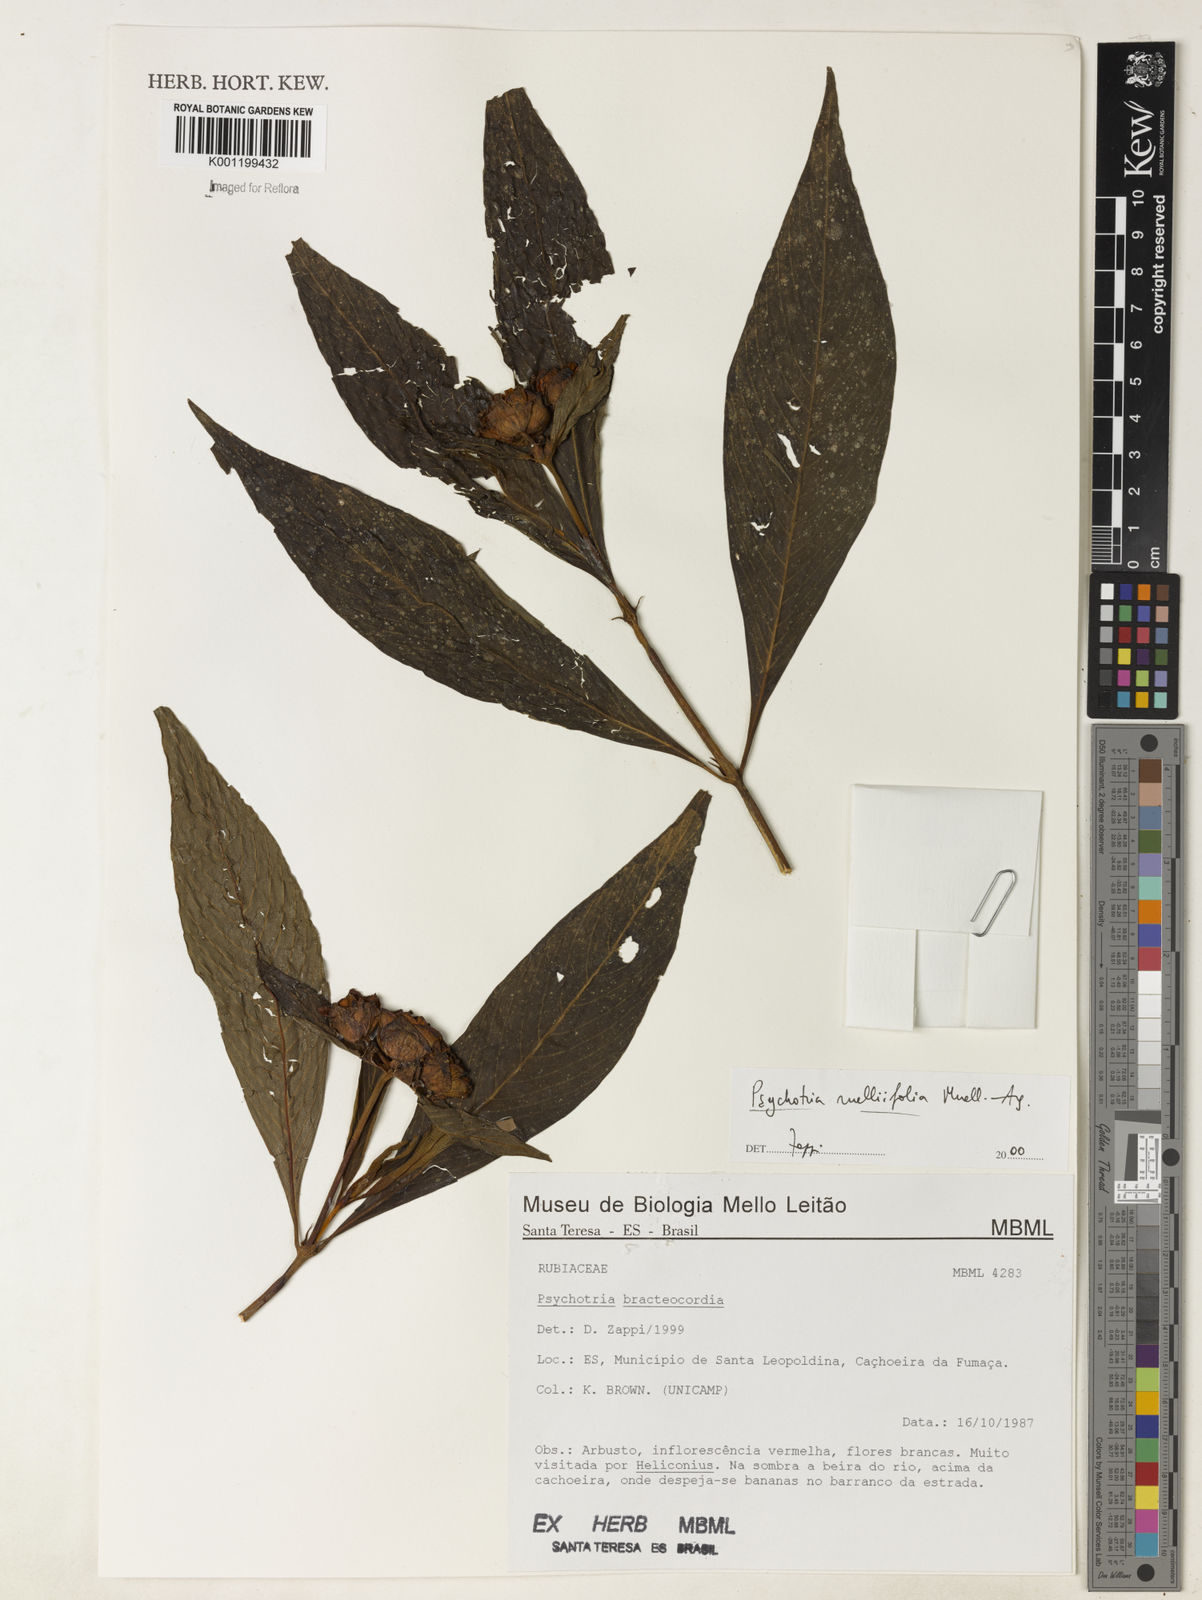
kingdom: Plantae
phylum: Tracheophyta
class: Magnoliopsida
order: Gentianales
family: Rubiaceae
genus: Psychotria
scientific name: Psychotria
